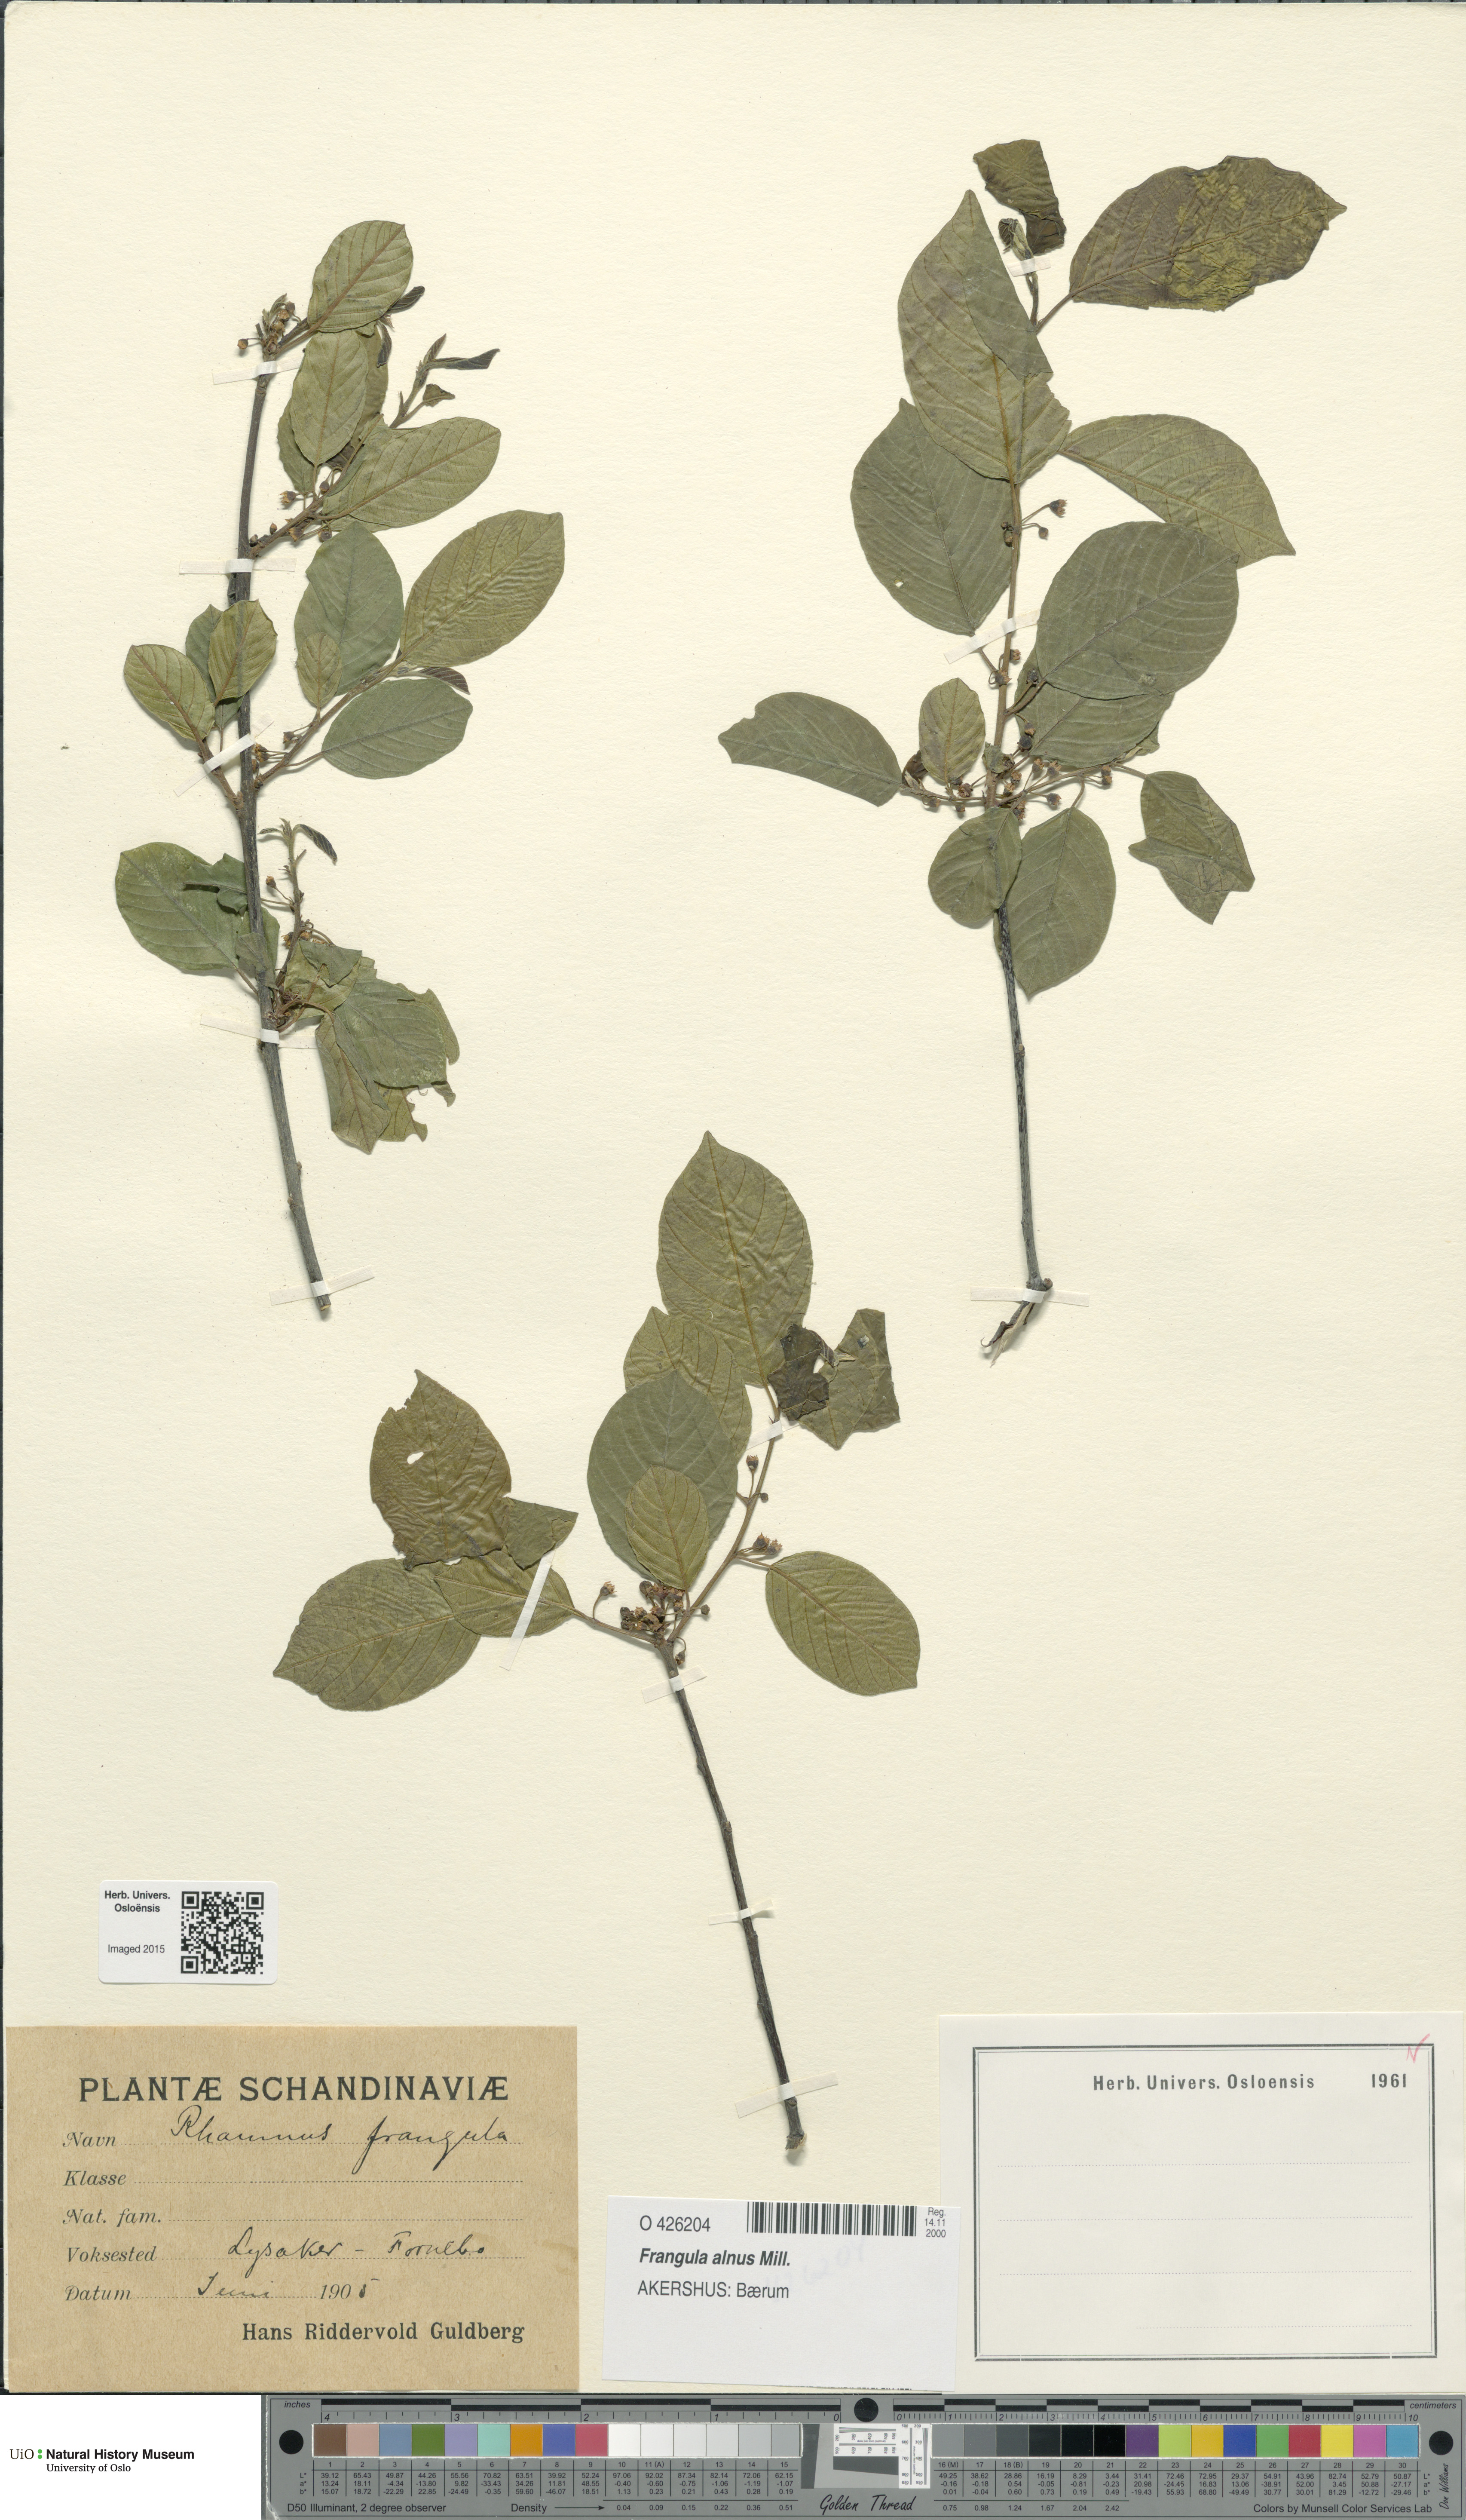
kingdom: Plantae
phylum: Tracheophyta
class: Magnoliopsida
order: Rosales
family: Rhamnaceae
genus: Frangula
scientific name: Frangula alnus
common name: Alder buckthorn
